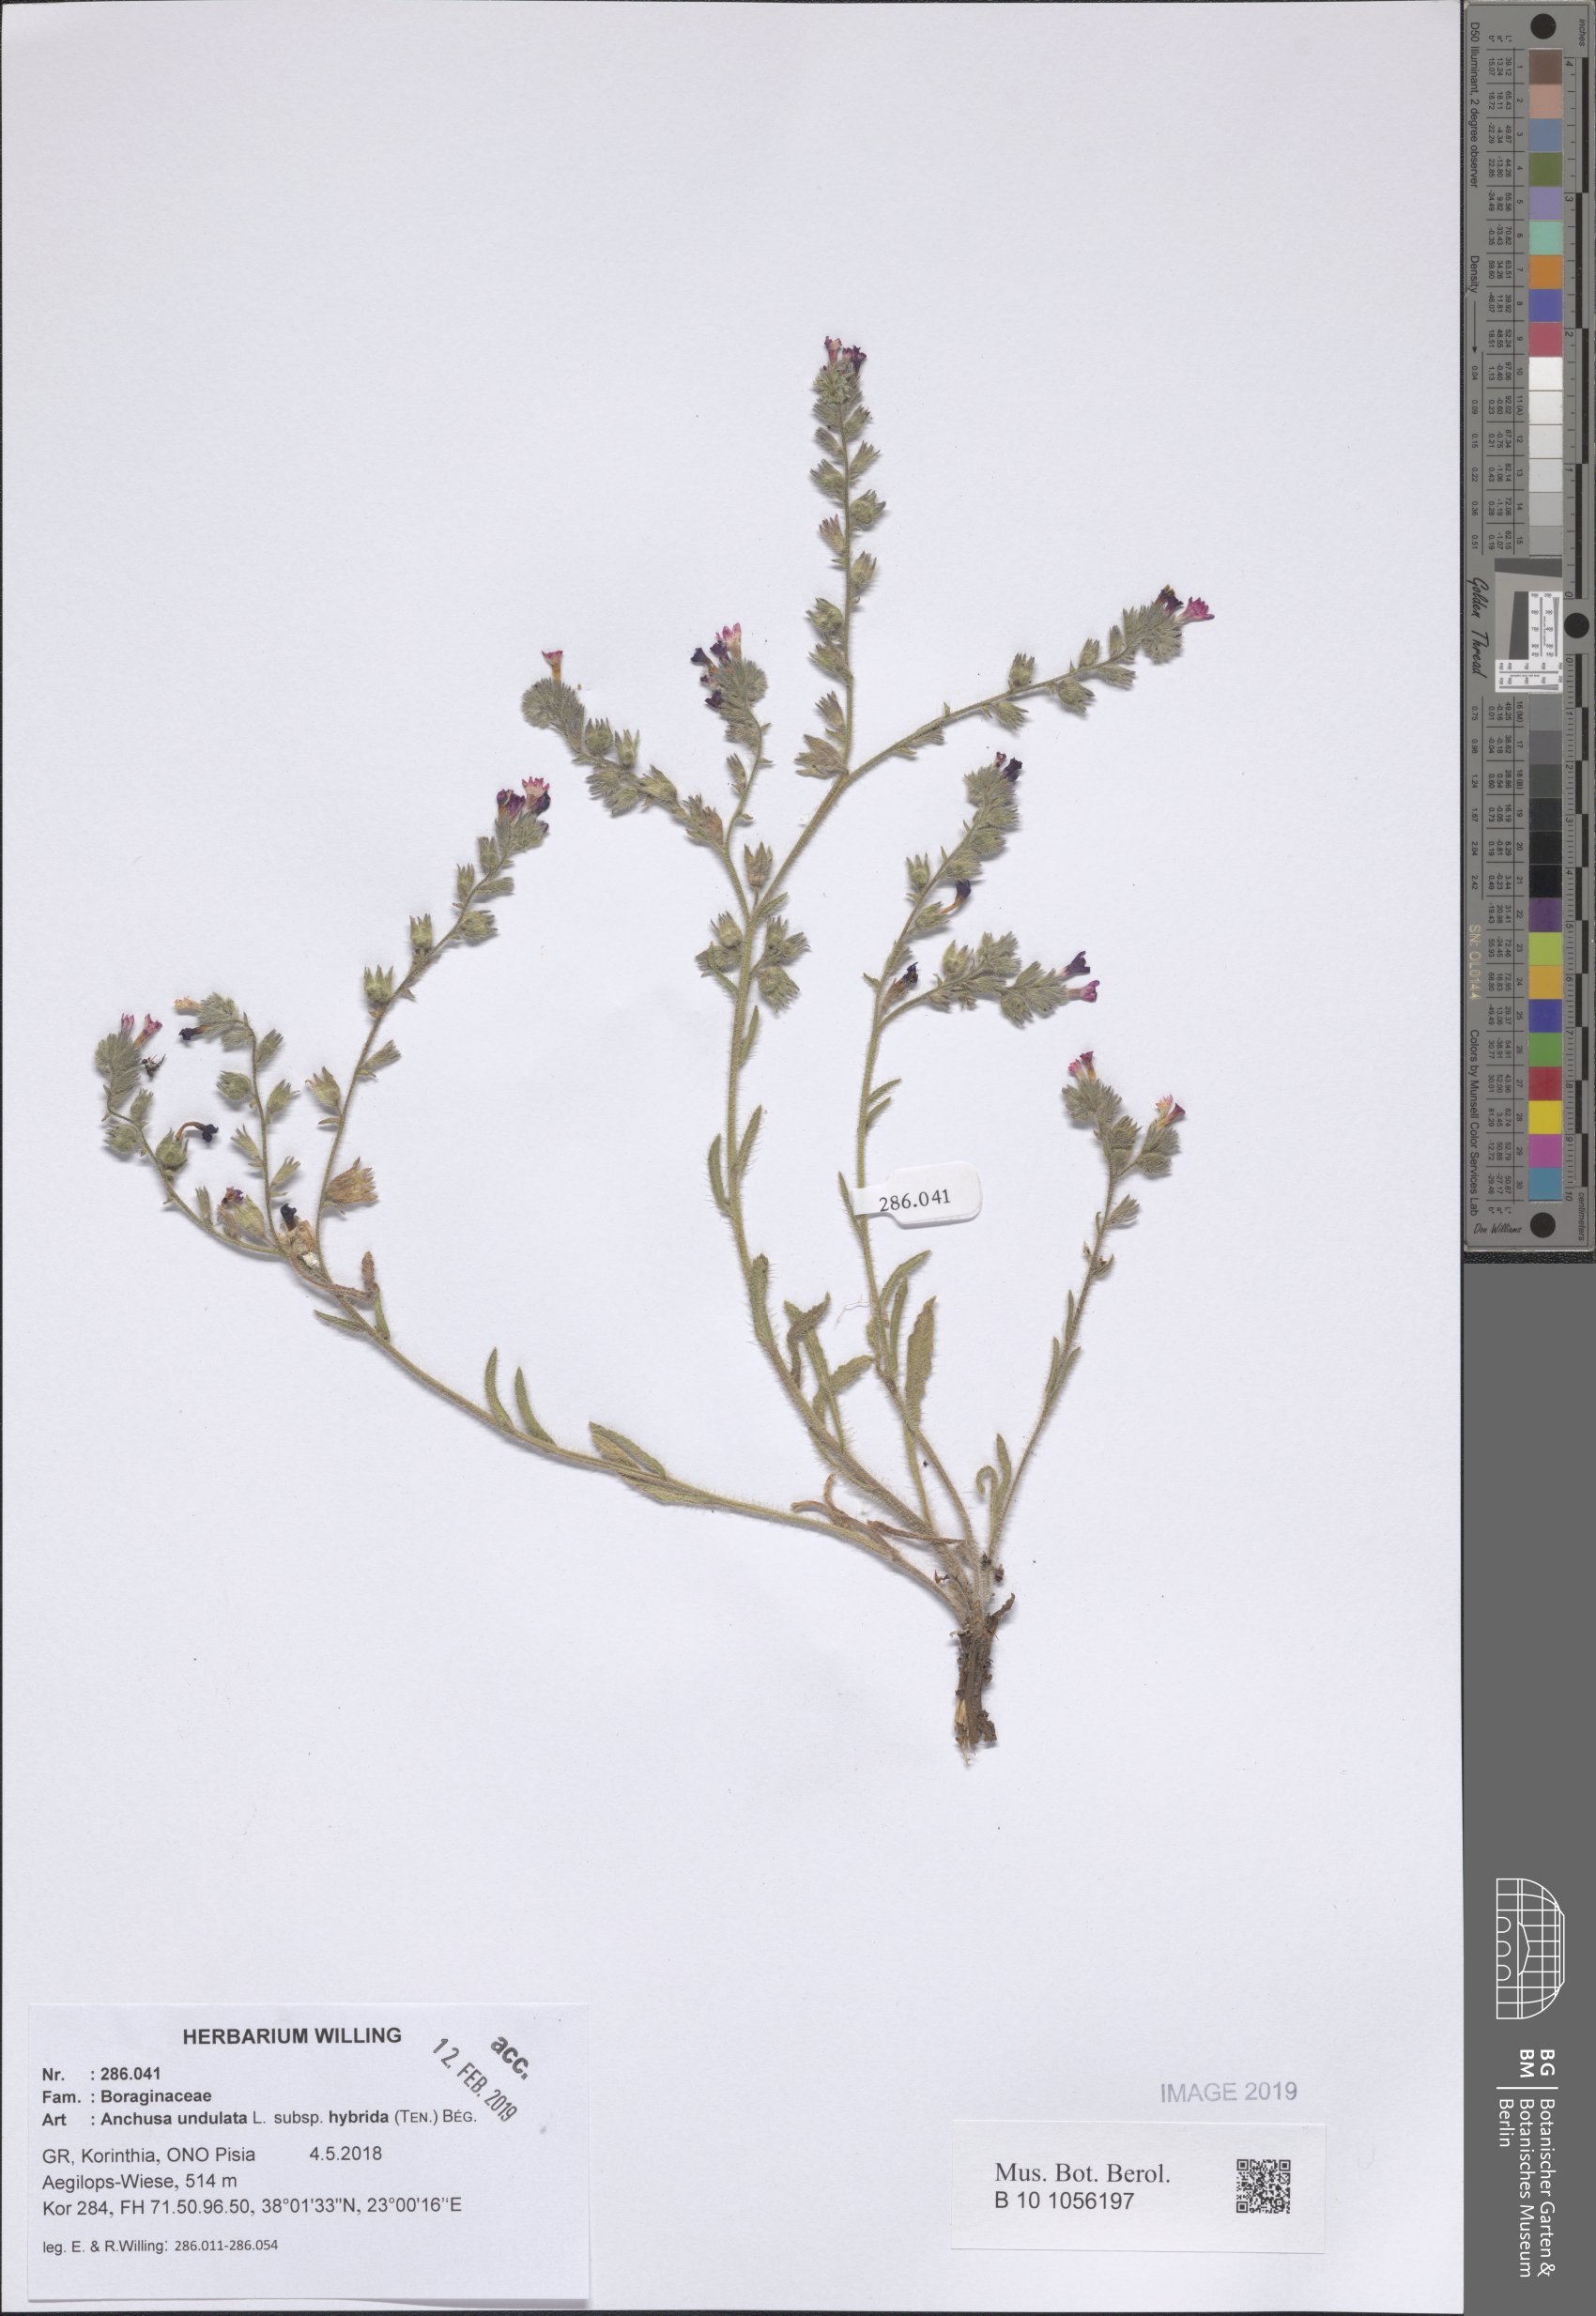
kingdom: Plantae
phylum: Tracheophyta
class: Magnoliopsida
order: Boraginales
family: Boraginaceae
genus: Anchusa
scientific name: Anchusa undulata
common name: Undulate alkanet
